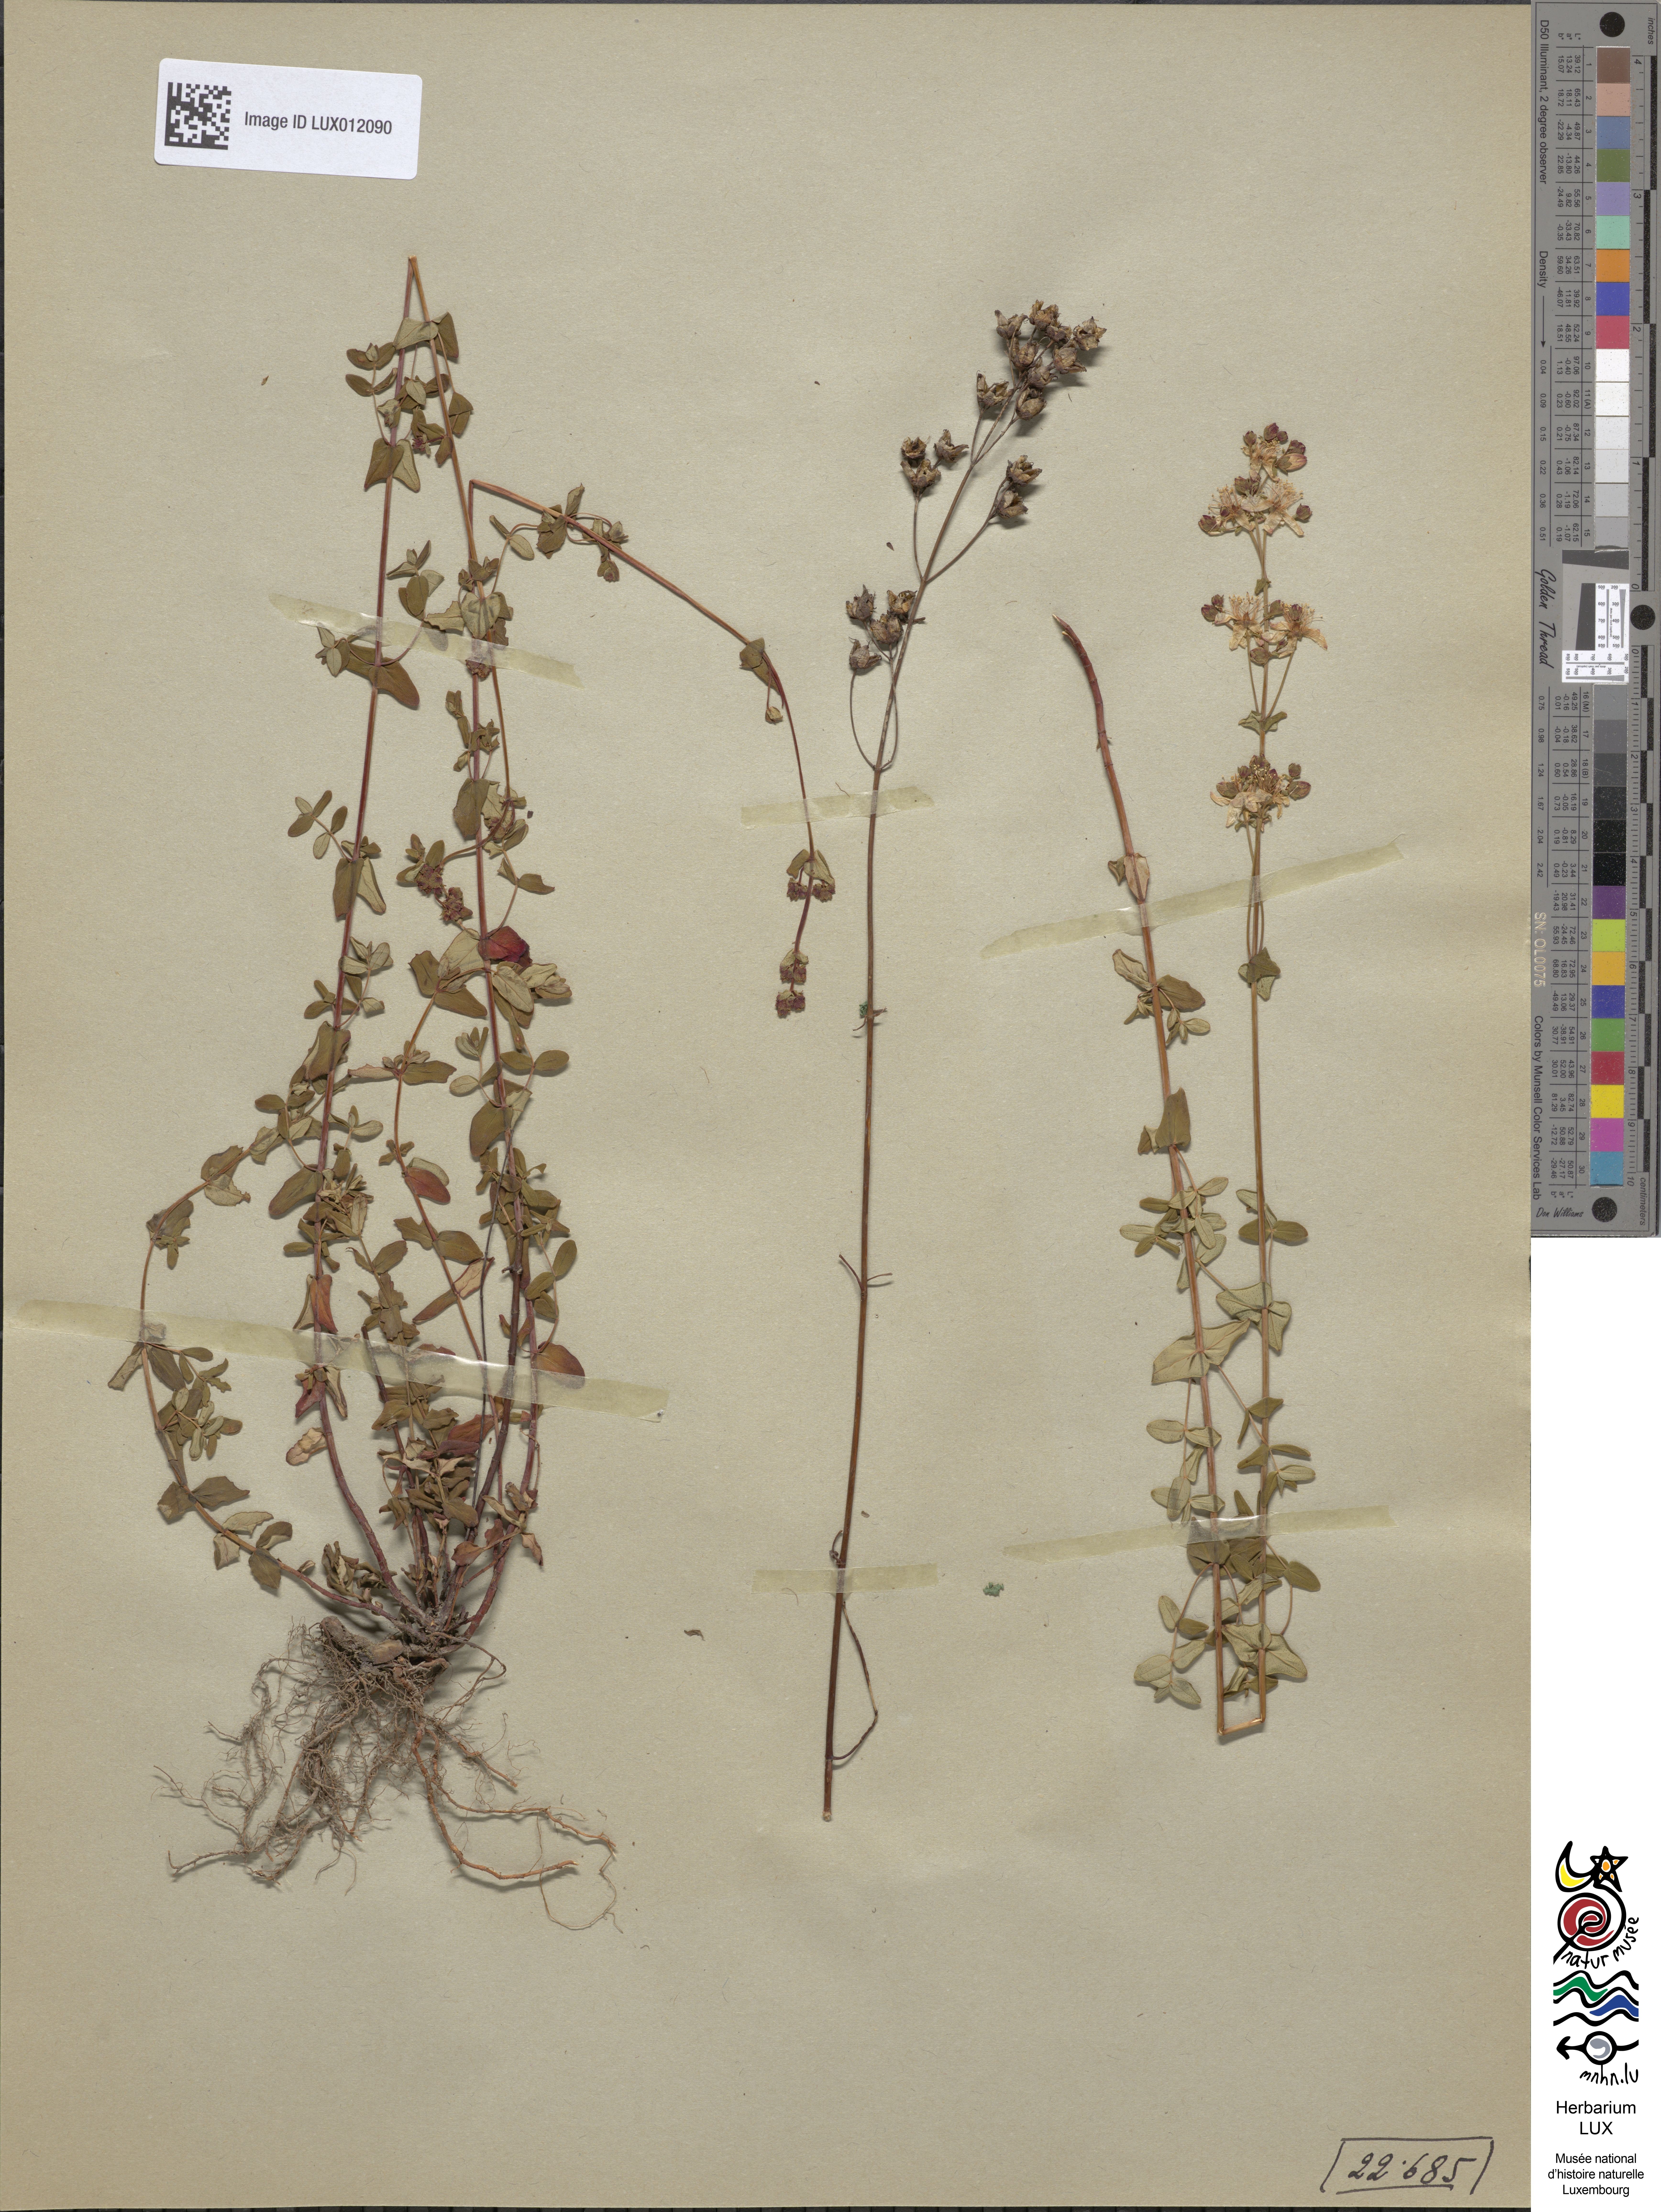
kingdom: Plantae
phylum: Tracheophyta
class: Magnoliopsida
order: Malpighiales
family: Hypericaceae
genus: Hypericum
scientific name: Hypericum pulchrum
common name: Slender st. john's-wort
